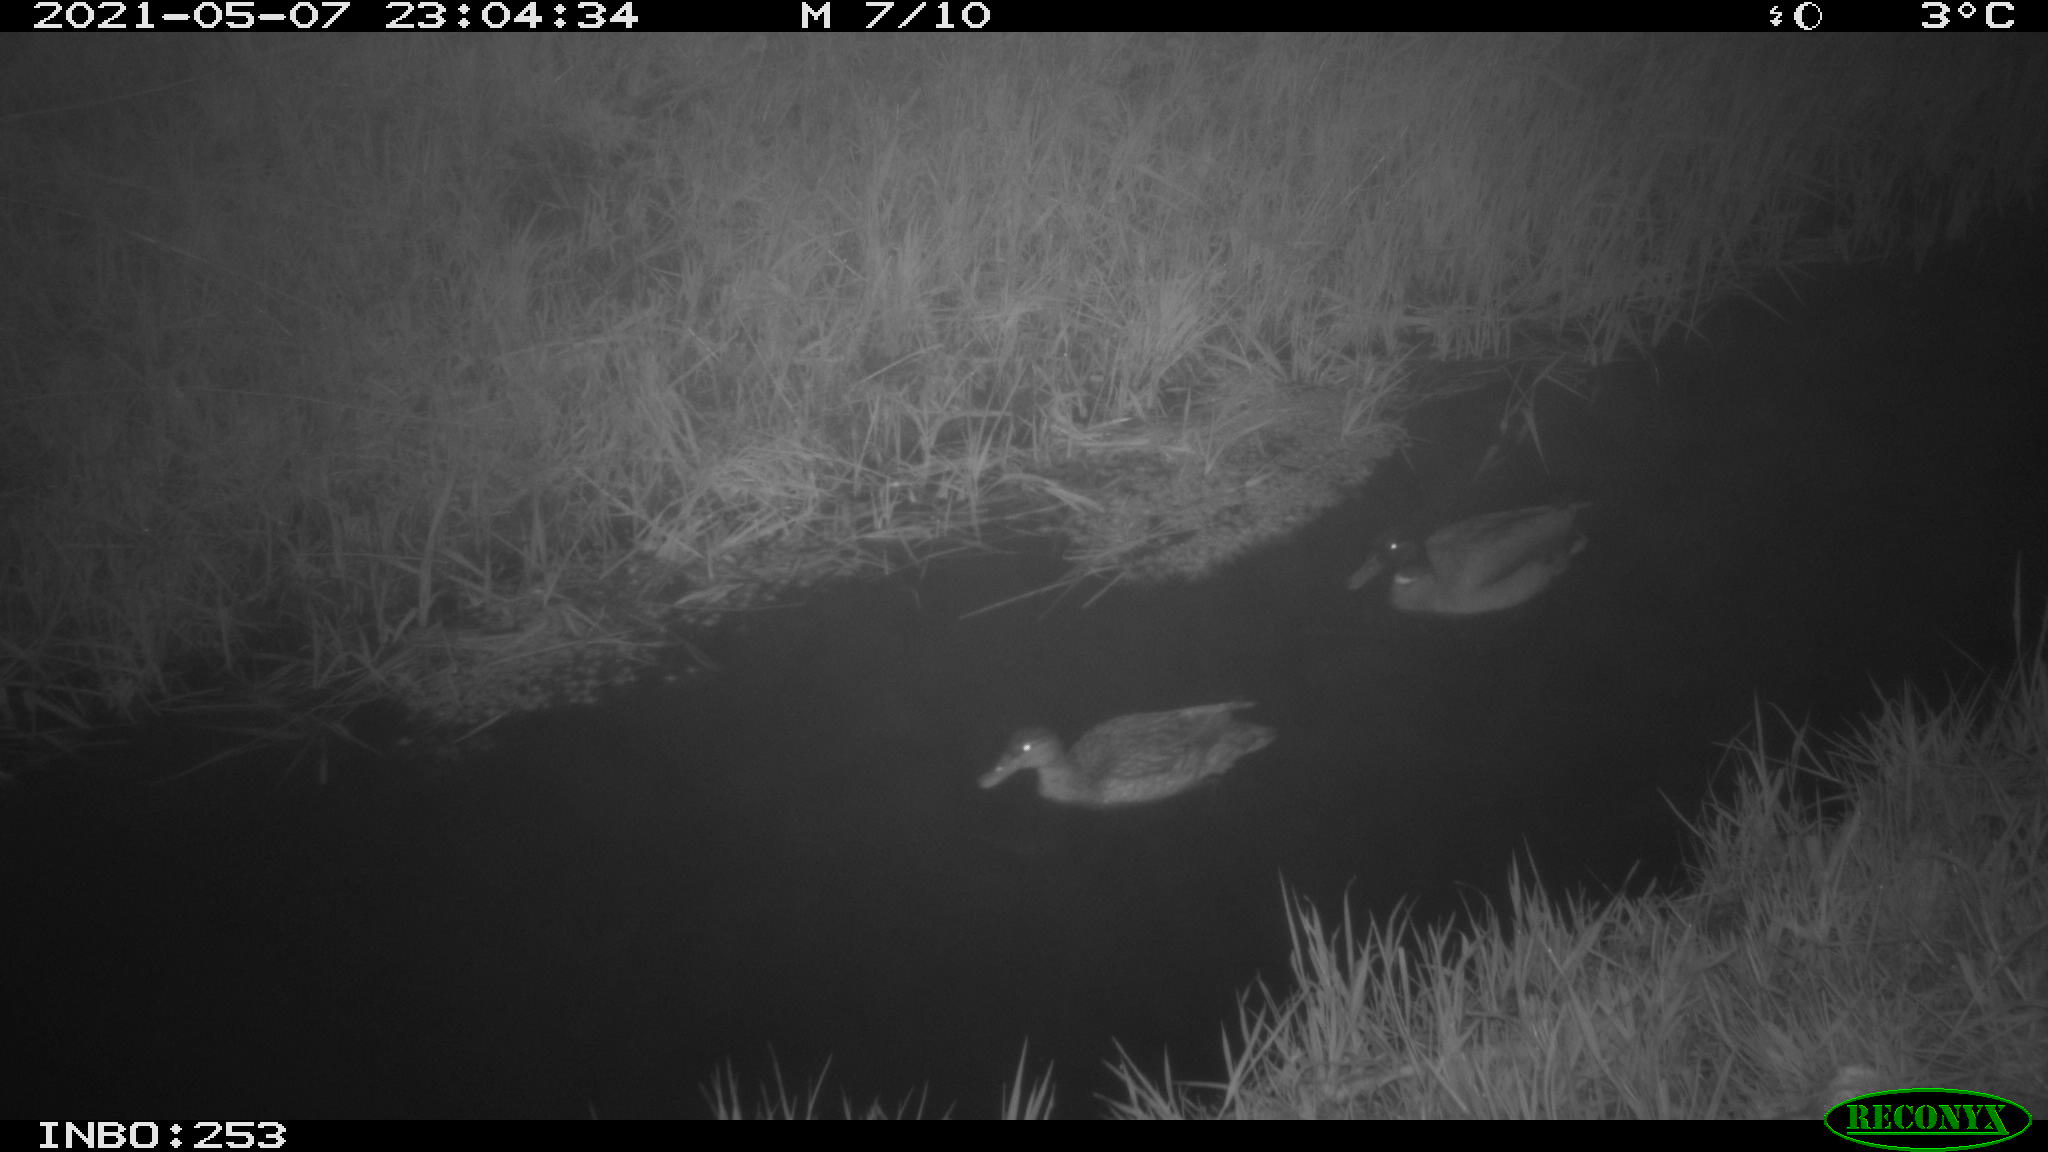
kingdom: Animalia
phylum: Chordata
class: Aves
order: Anseriformes
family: Anatidae
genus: Anas
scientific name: Anas platyrhynchos
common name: Mallard
